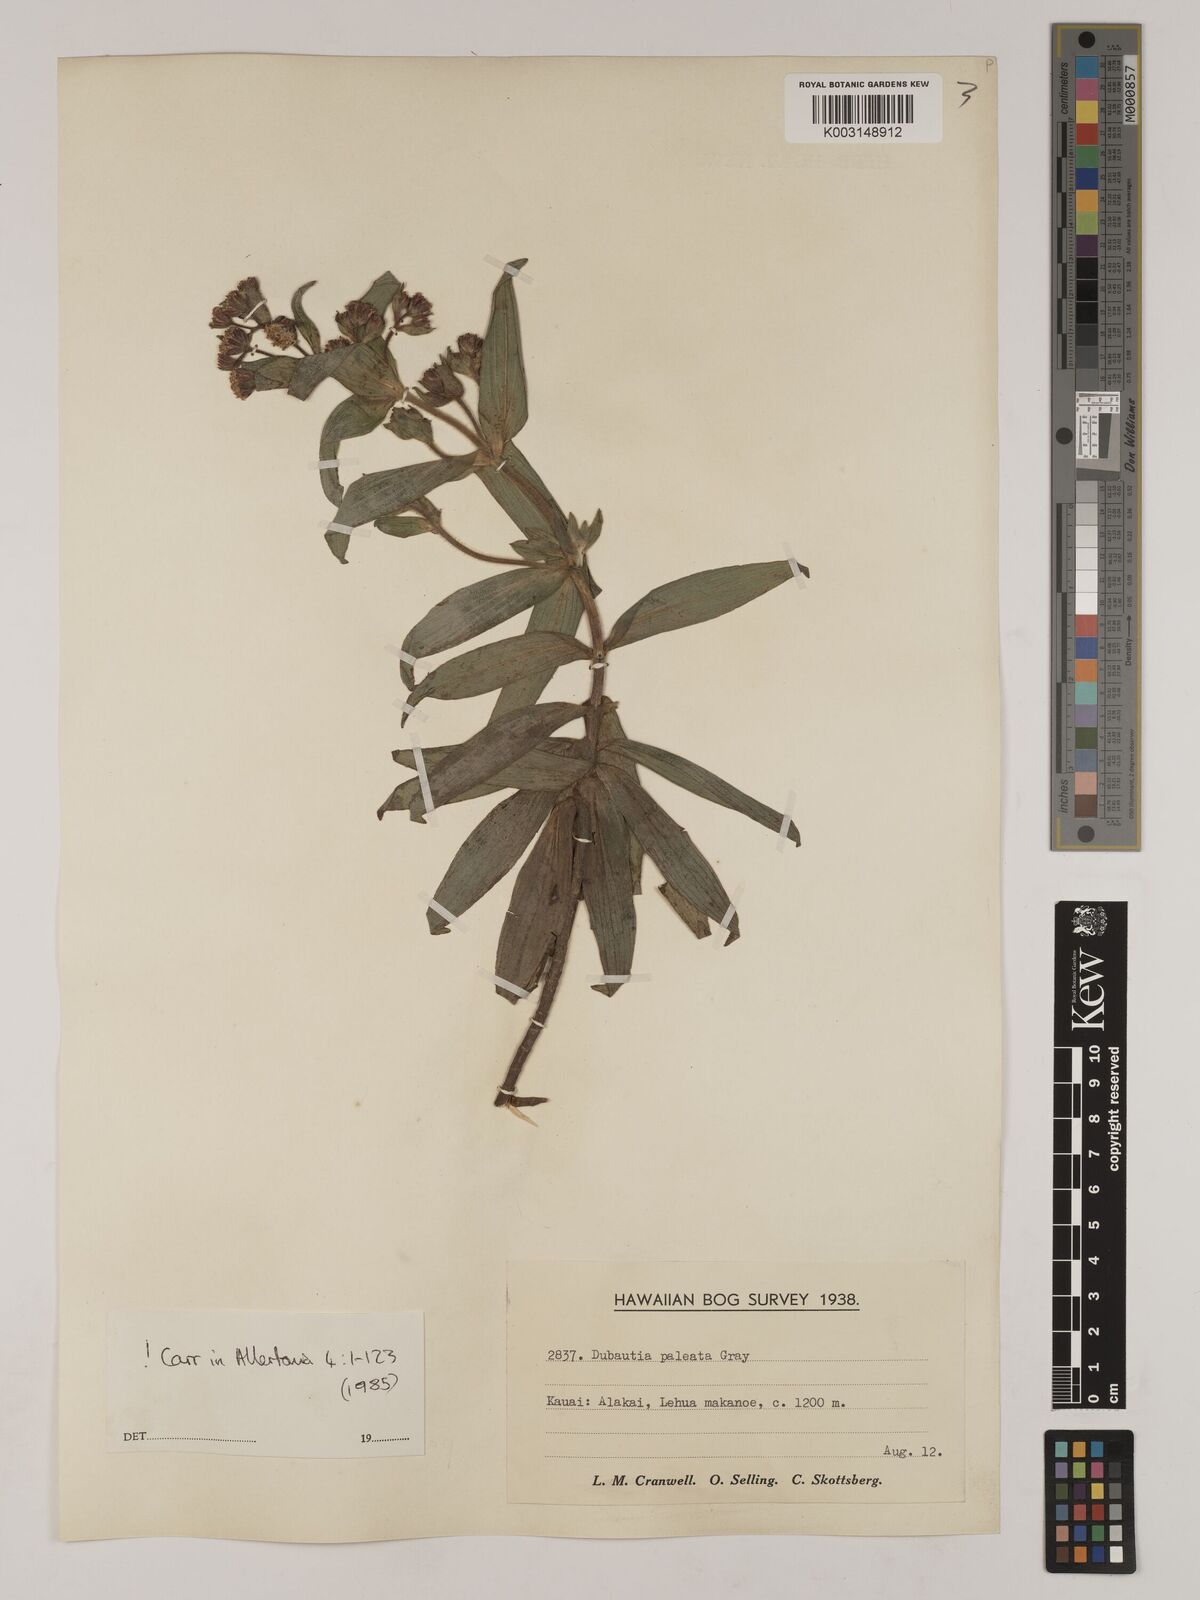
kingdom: Plantae
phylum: Tracheophyta
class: Magnoliopsida
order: Asterales
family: Asteraceae
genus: Dubautia
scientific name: Dubautia paleata
